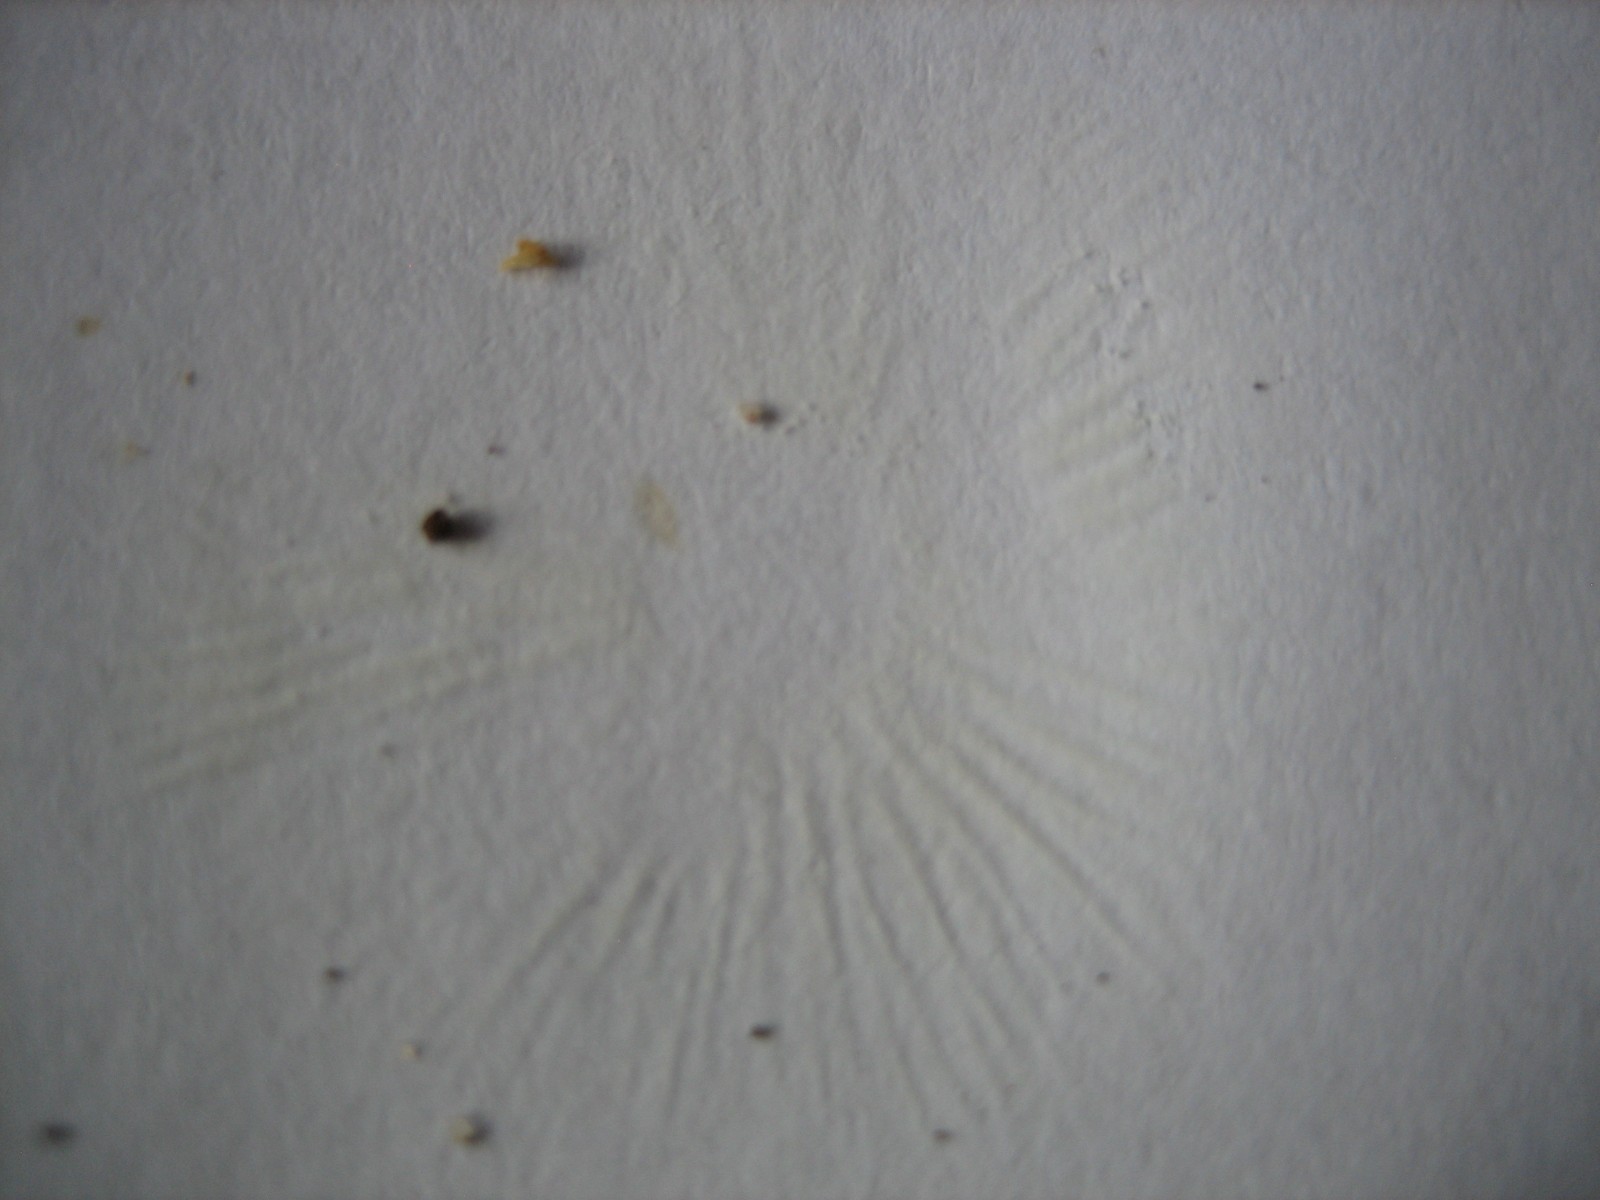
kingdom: Fungi
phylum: Basidiomycota
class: Agaricomycetes
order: Agaricales
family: Agaricaceae
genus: Lepiota
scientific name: Lepiota
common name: parasolhat
